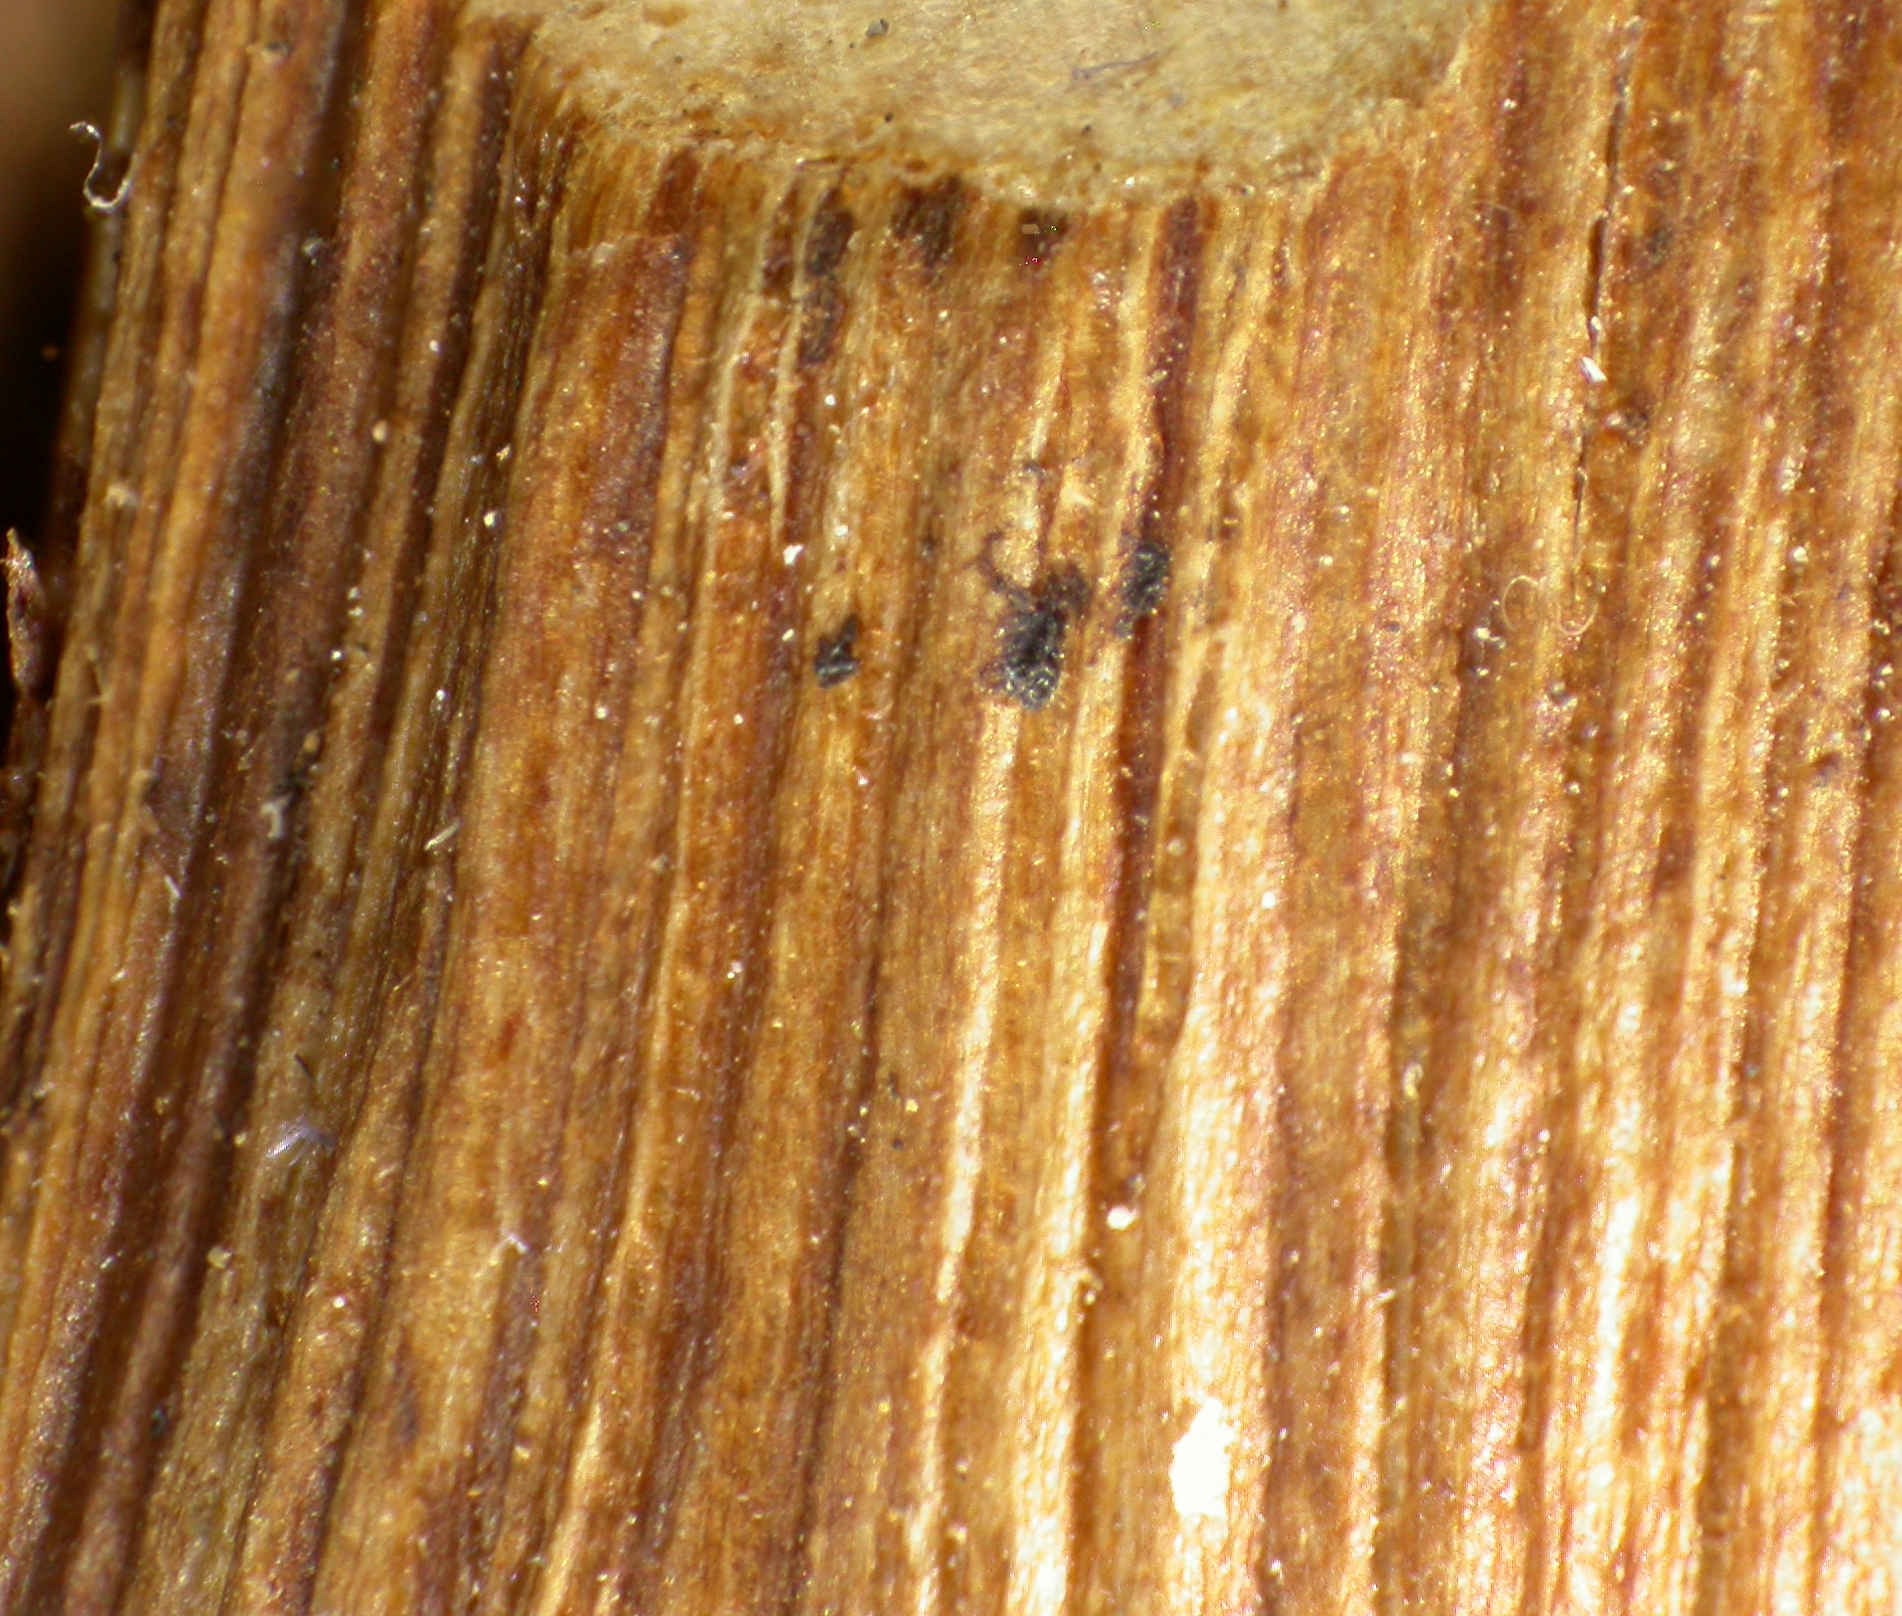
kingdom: Fungi
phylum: Ascomycota
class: Sordariomycetes
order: Diaporthales
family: Diaporthaceae
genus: Diaporthe
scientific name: Diaporthe eres
